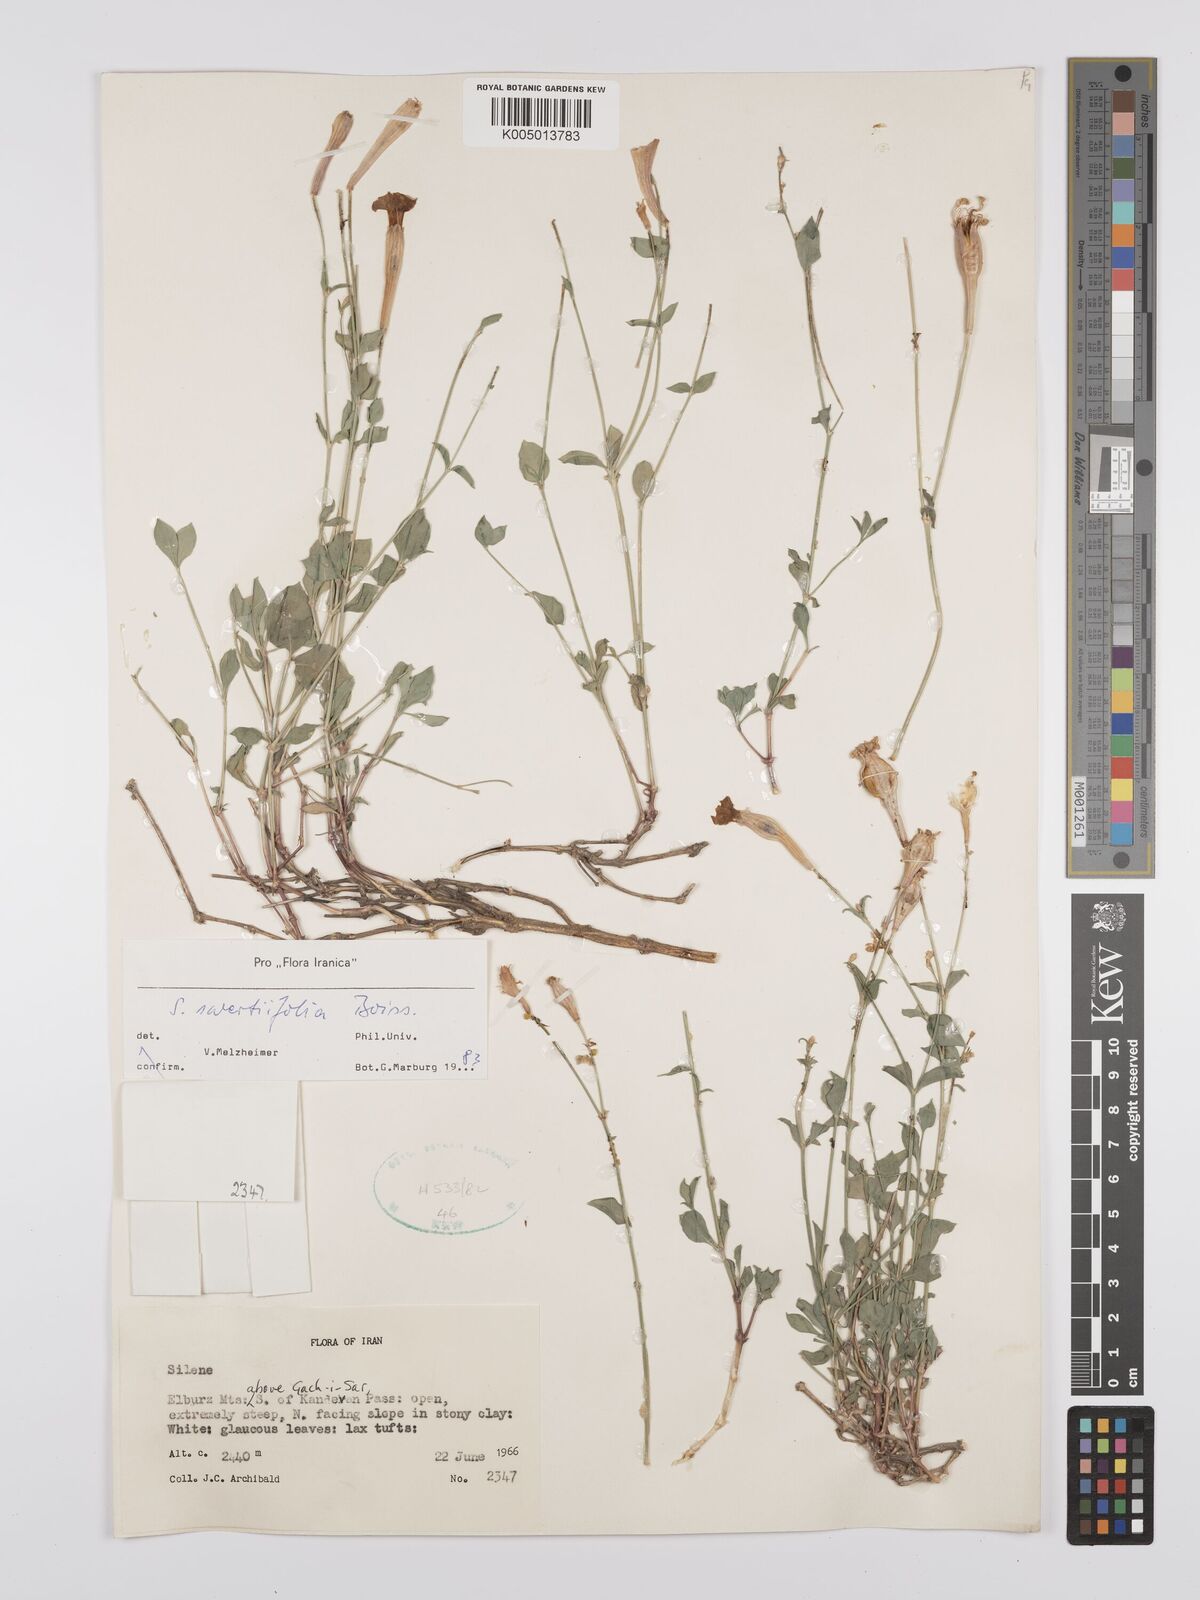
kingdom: Plantae
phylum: Tracheophyta
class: Magnoliopsida
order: Caryophyllales
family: Caryophyllaceae
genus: Silene
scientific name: Silene swertiifolia
